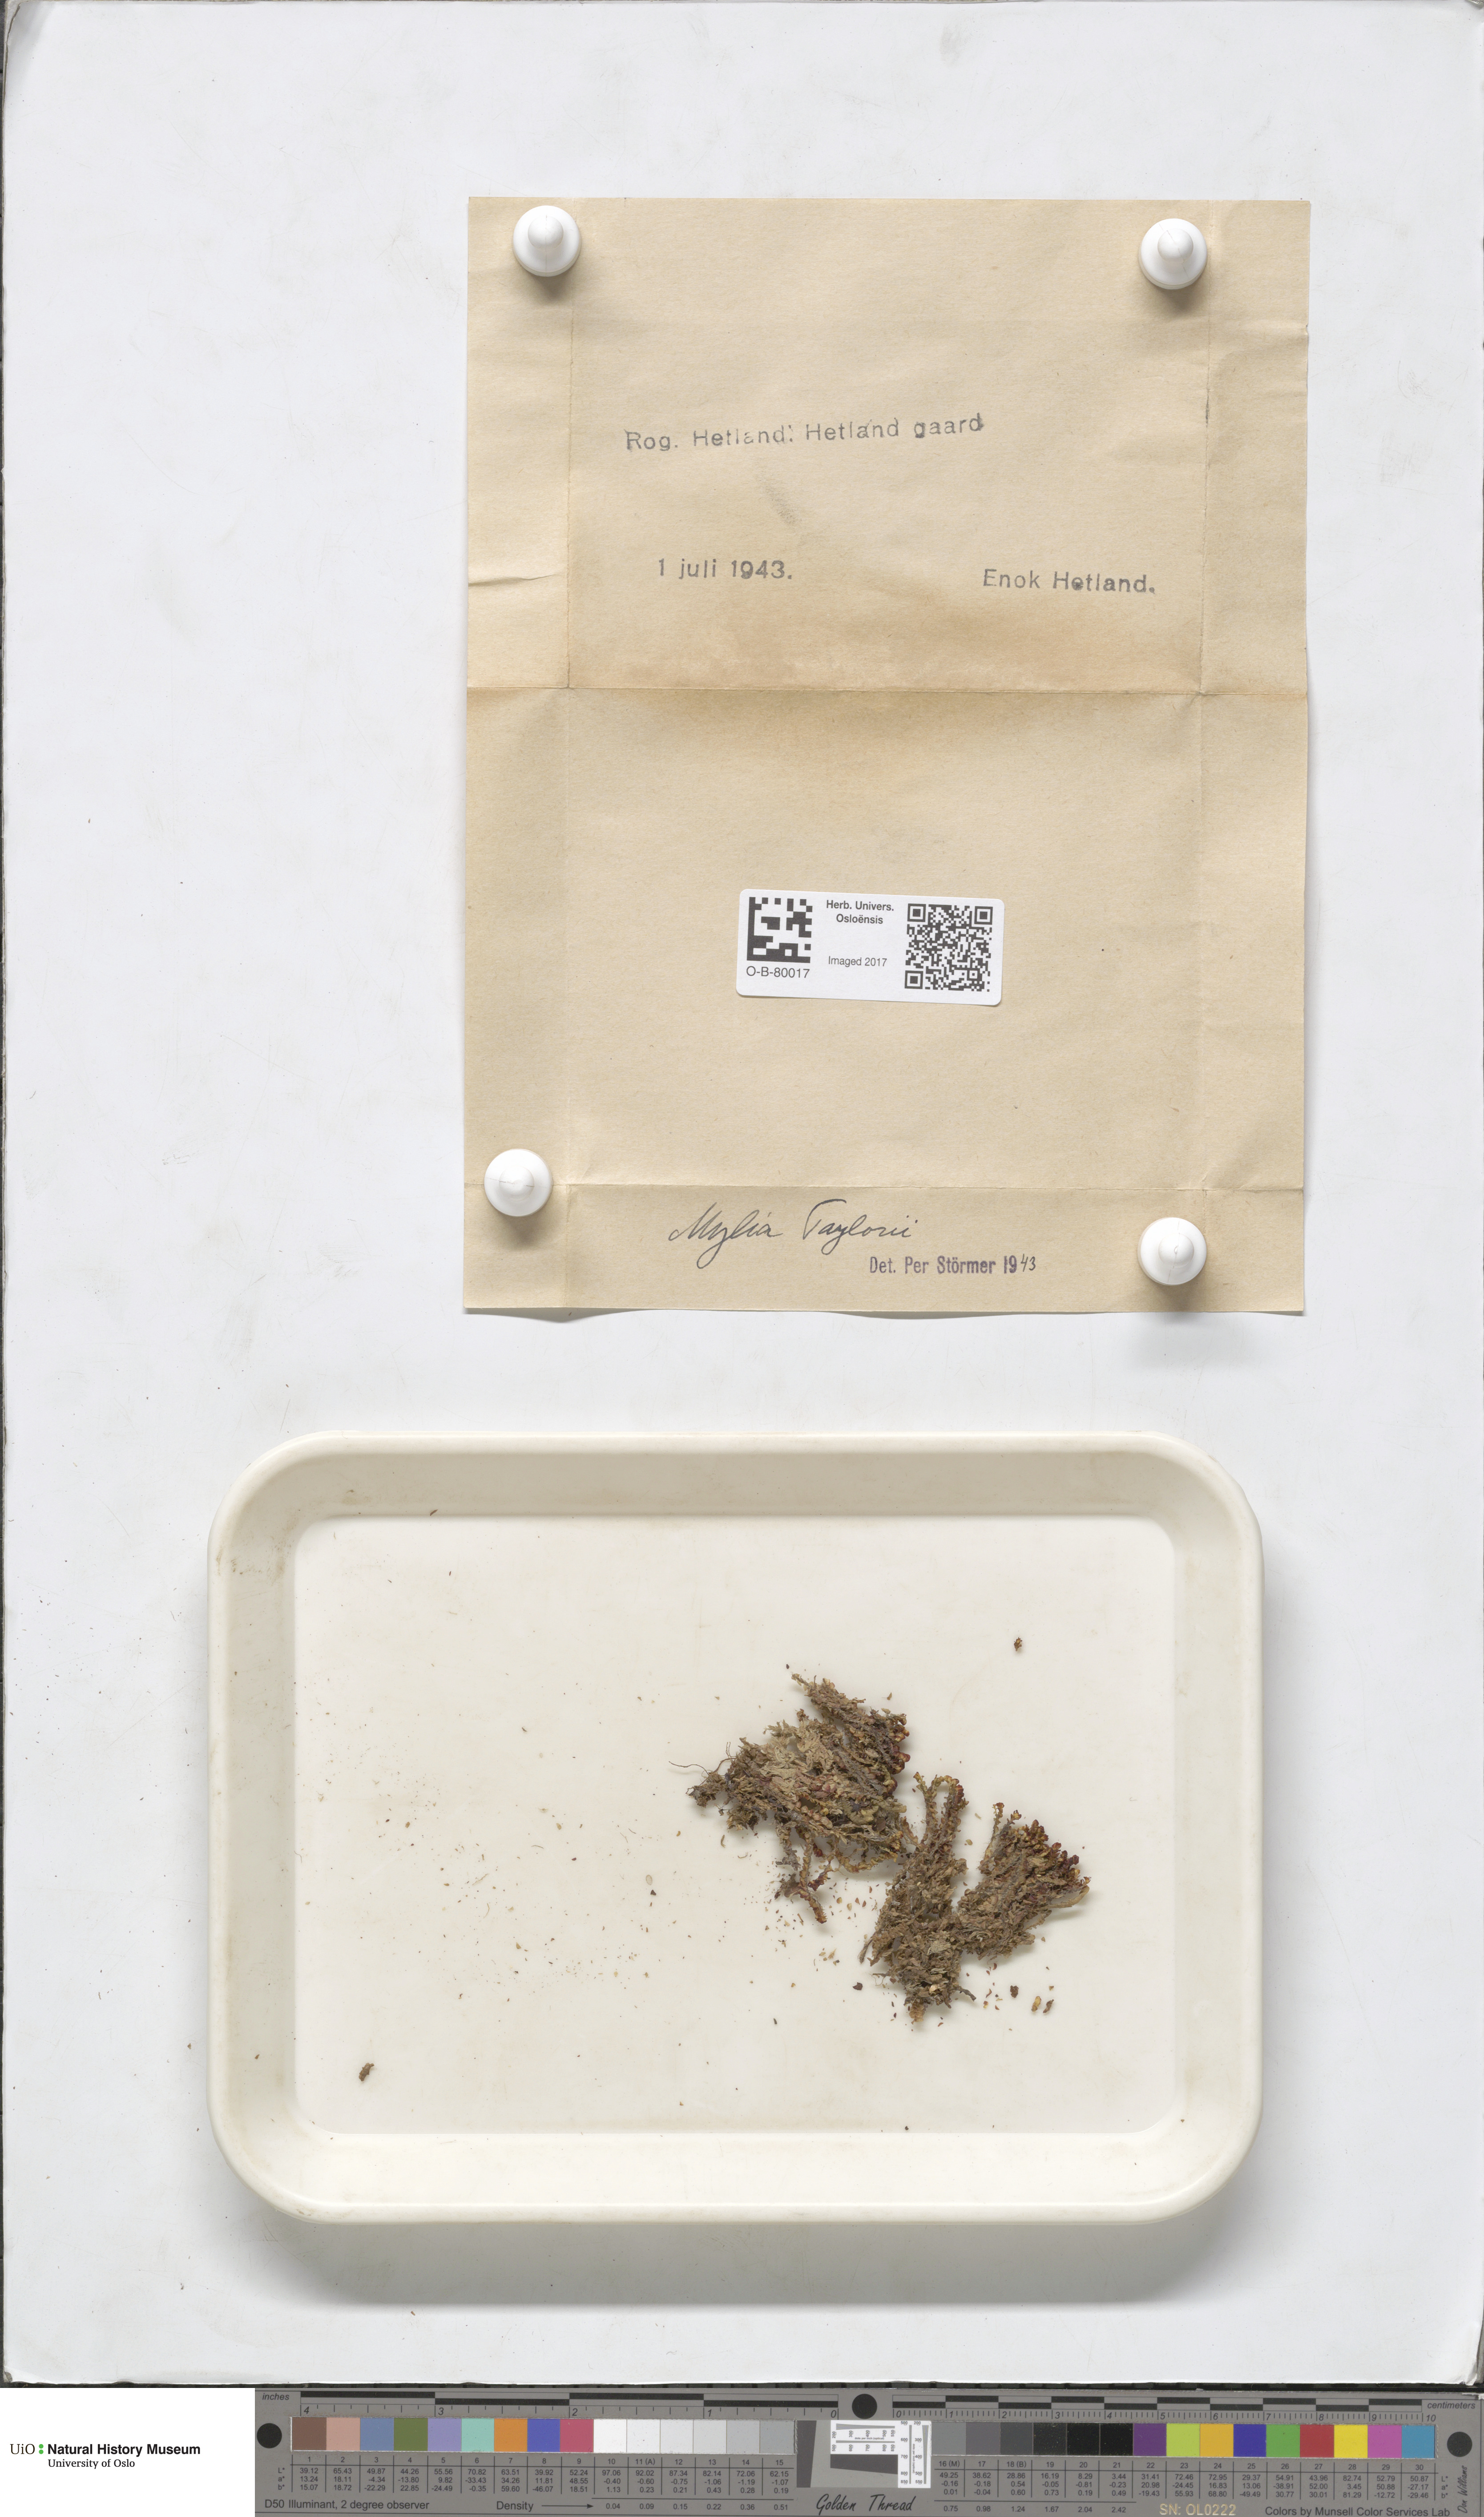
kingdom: Plantae
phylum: Marchantiophyta
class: Jungermanniopsida
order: Jungermanniales
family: Myliaceae
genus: Mylia
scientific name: Mylia taylorii
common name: Taylor s flapwort
